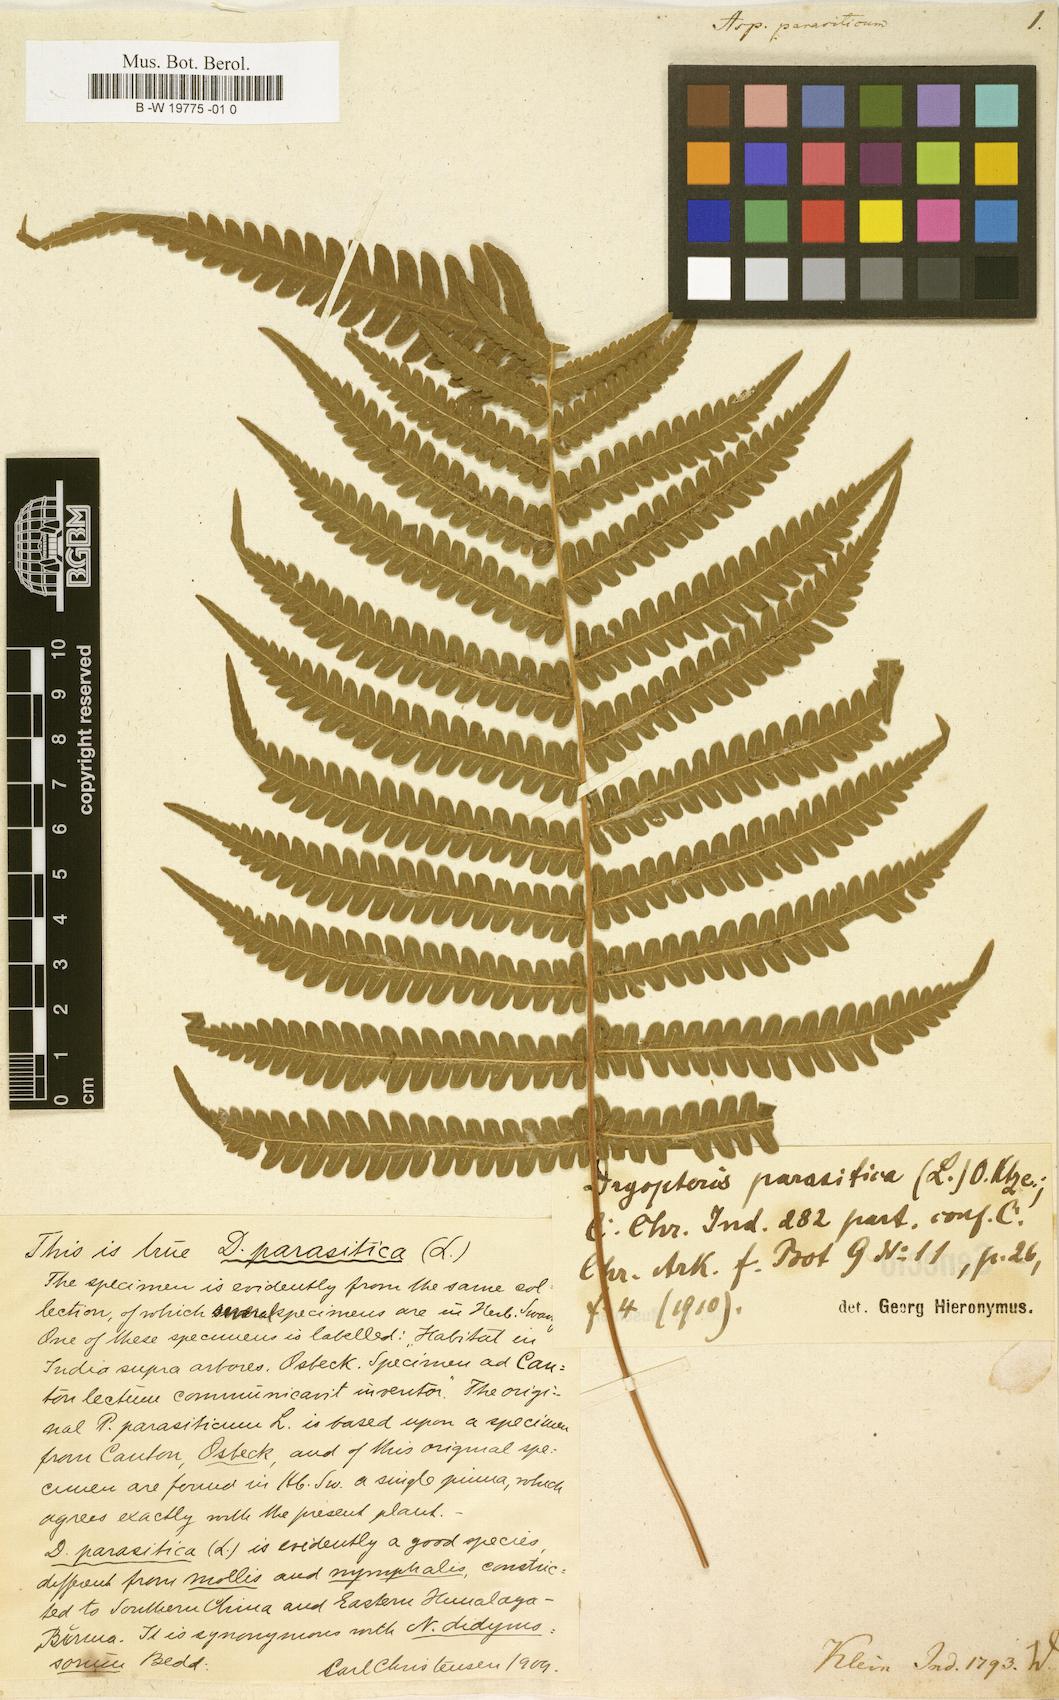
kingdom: Plantae
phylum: Tracheophyta
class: Polypodiopsida
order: Polypodiales
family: Thelypteridaceae
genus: Christella
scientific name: Christella parasitica
